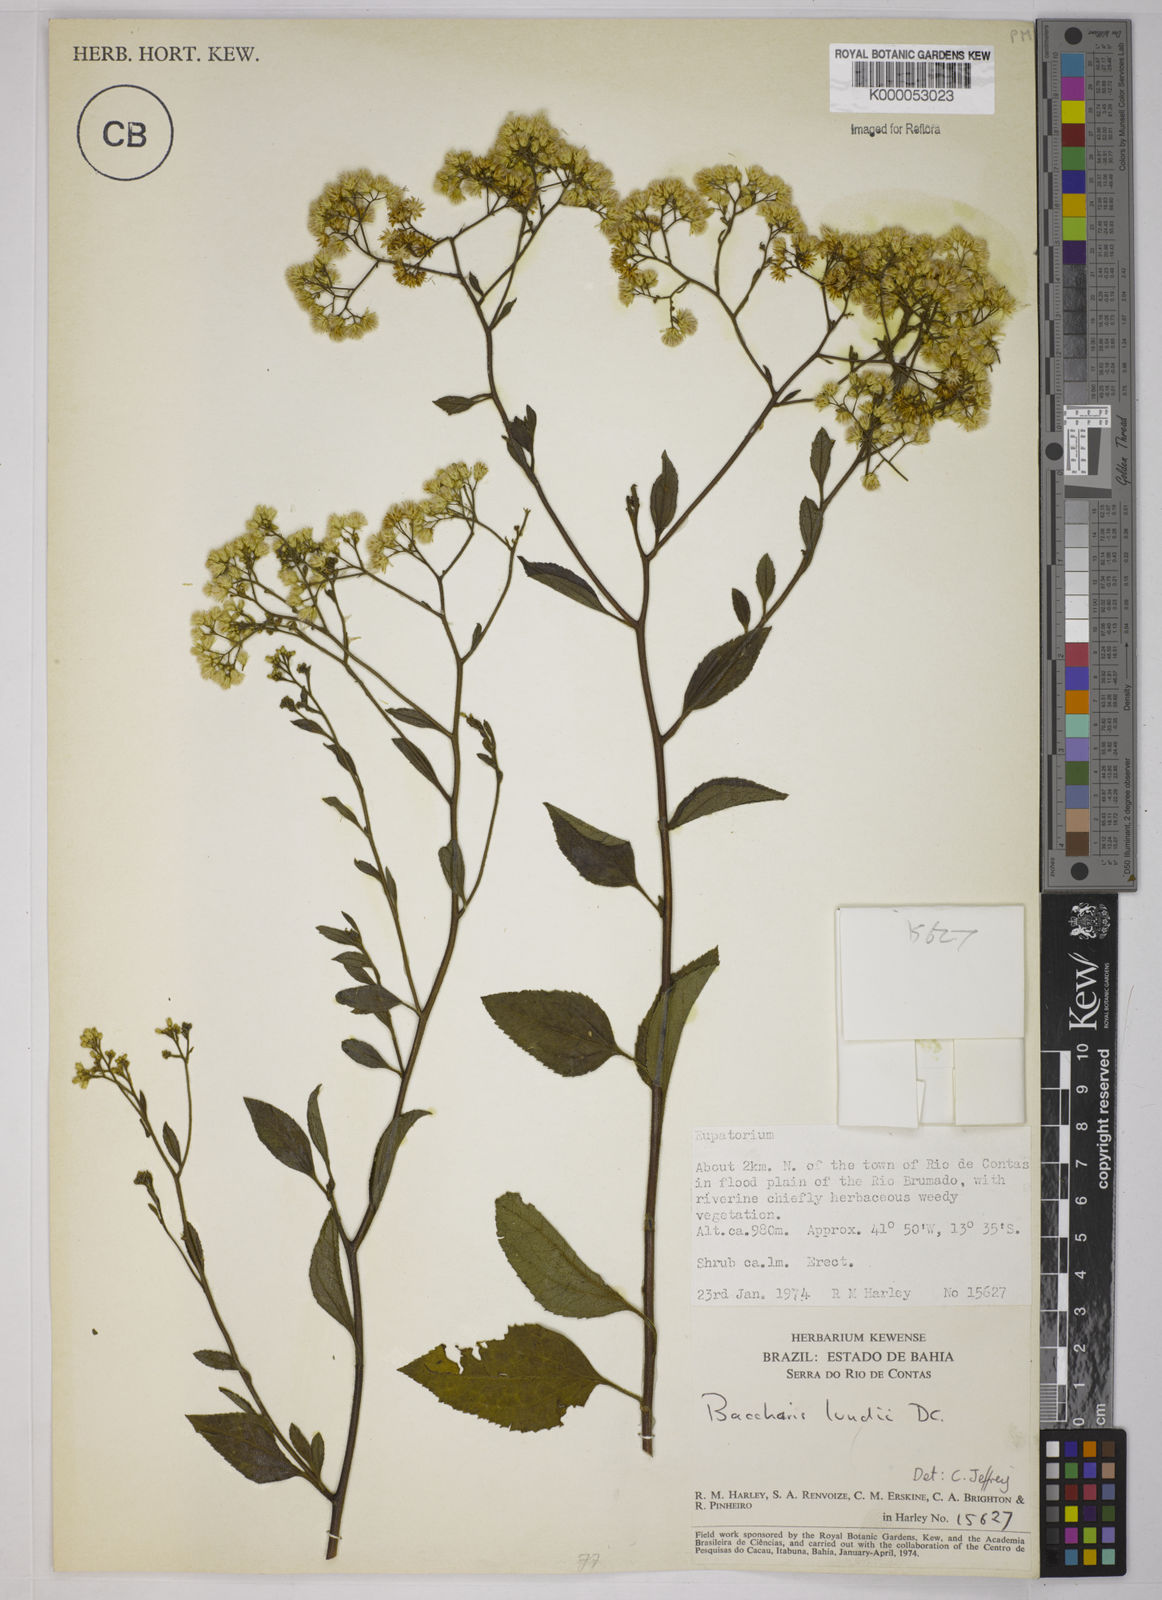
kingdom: Plantae
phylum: Tracheophyta
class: Magnoliopsida
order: Asterales
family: Asteraceae
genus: Baccharis
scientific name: Baccharis serrulata
